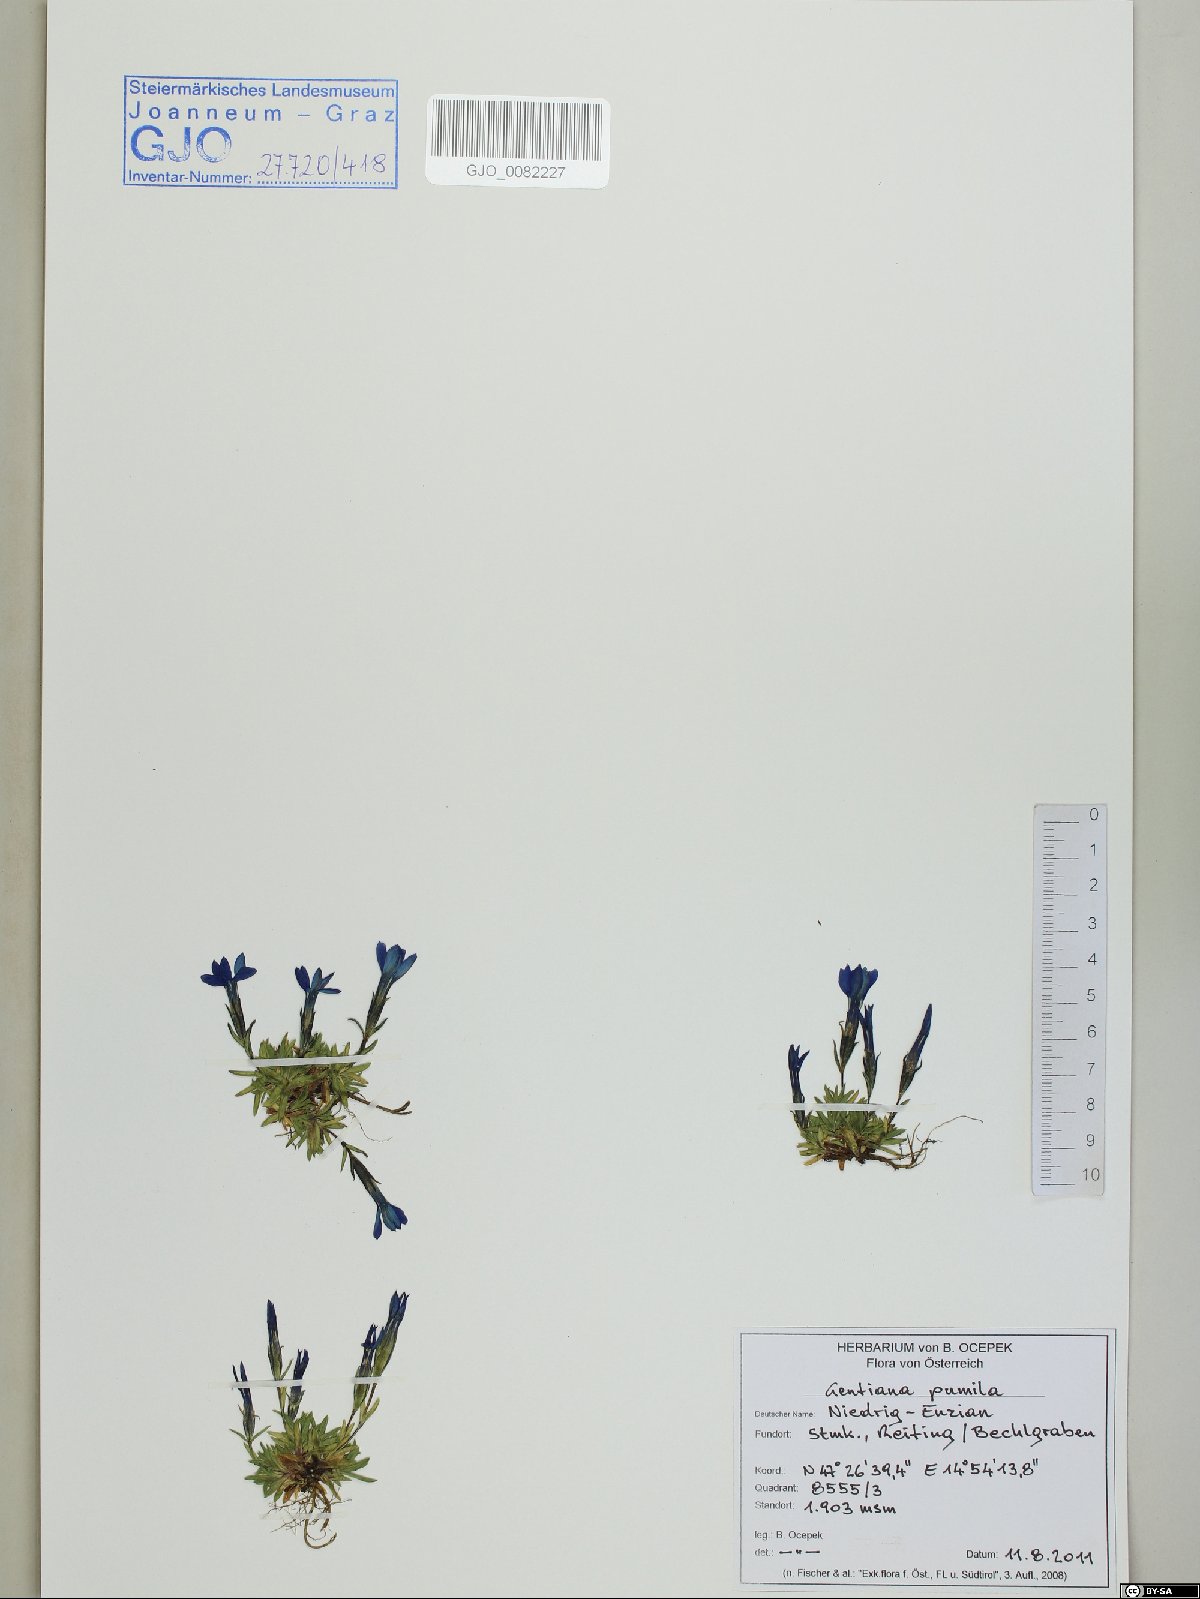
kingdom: Plantae
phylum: Tracheophyta
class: Magnoliopsida
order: Gentianales
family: Gentianaceae
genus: Gentiana
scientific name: Gentiana pumila
